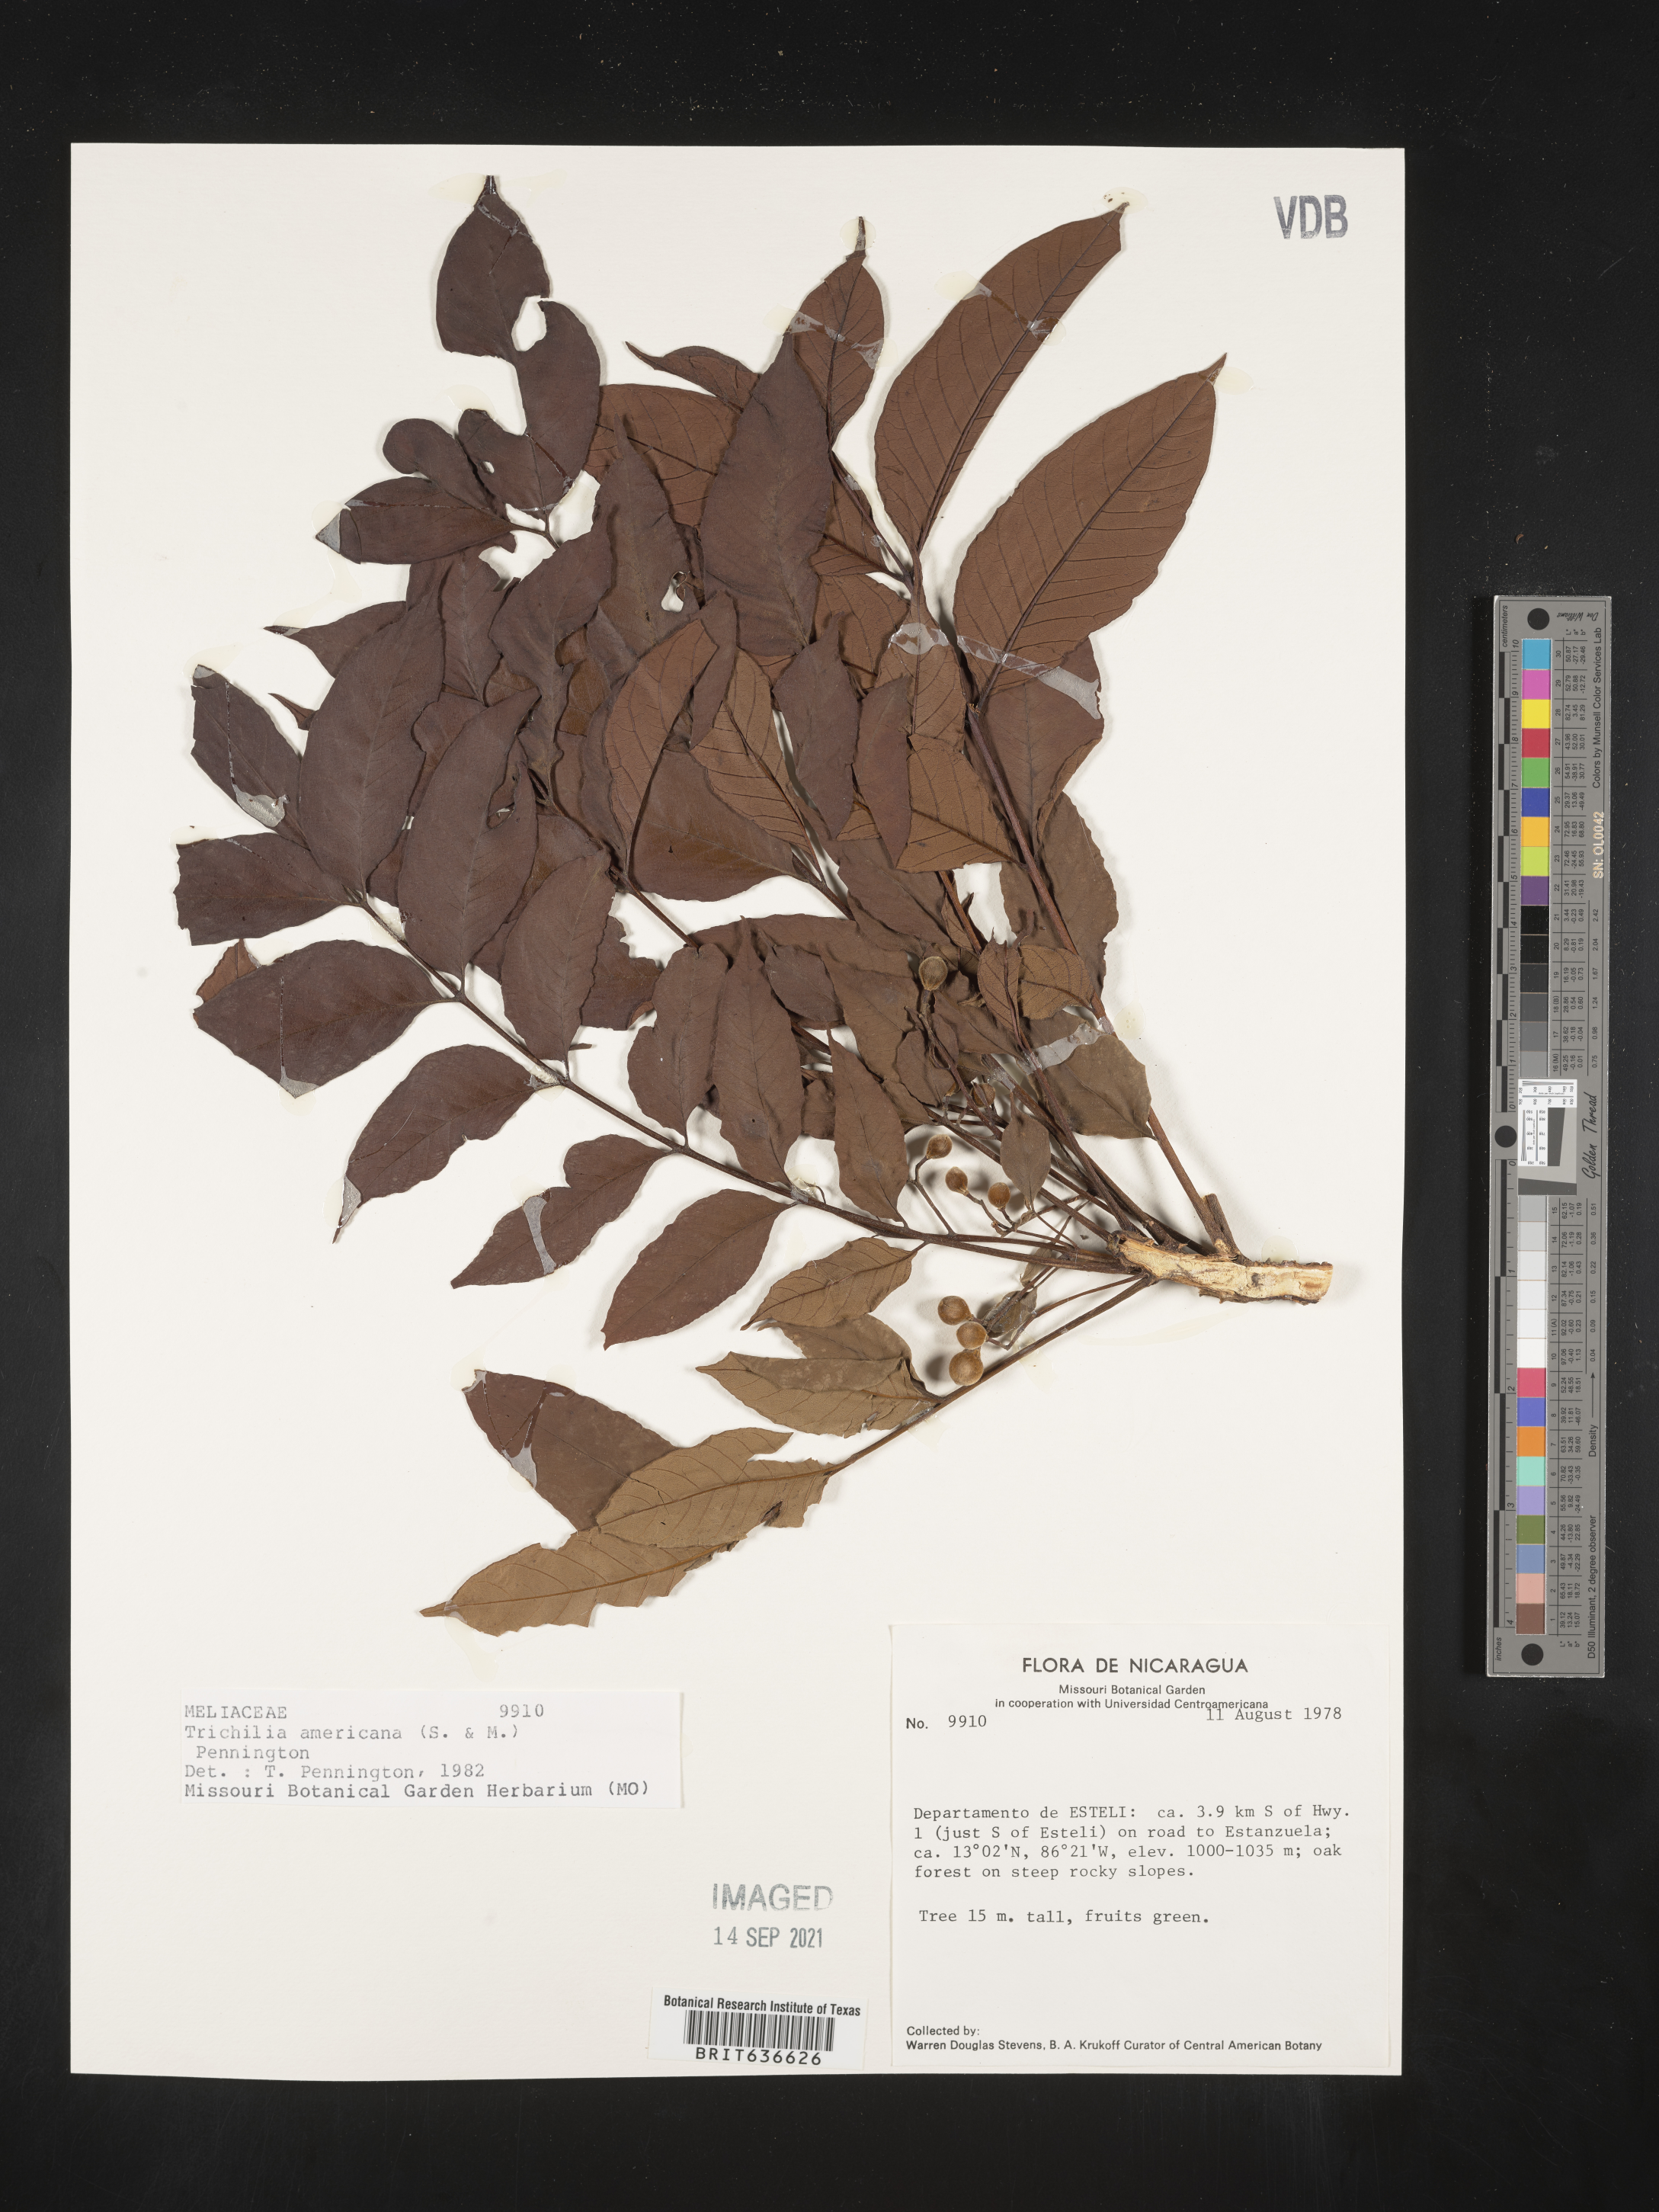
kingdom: Plantae
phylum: Tracheophyta
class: Magnoliopsida
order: Sapindales
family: Meliaceae
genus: Trichilia
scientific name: Trichilia
